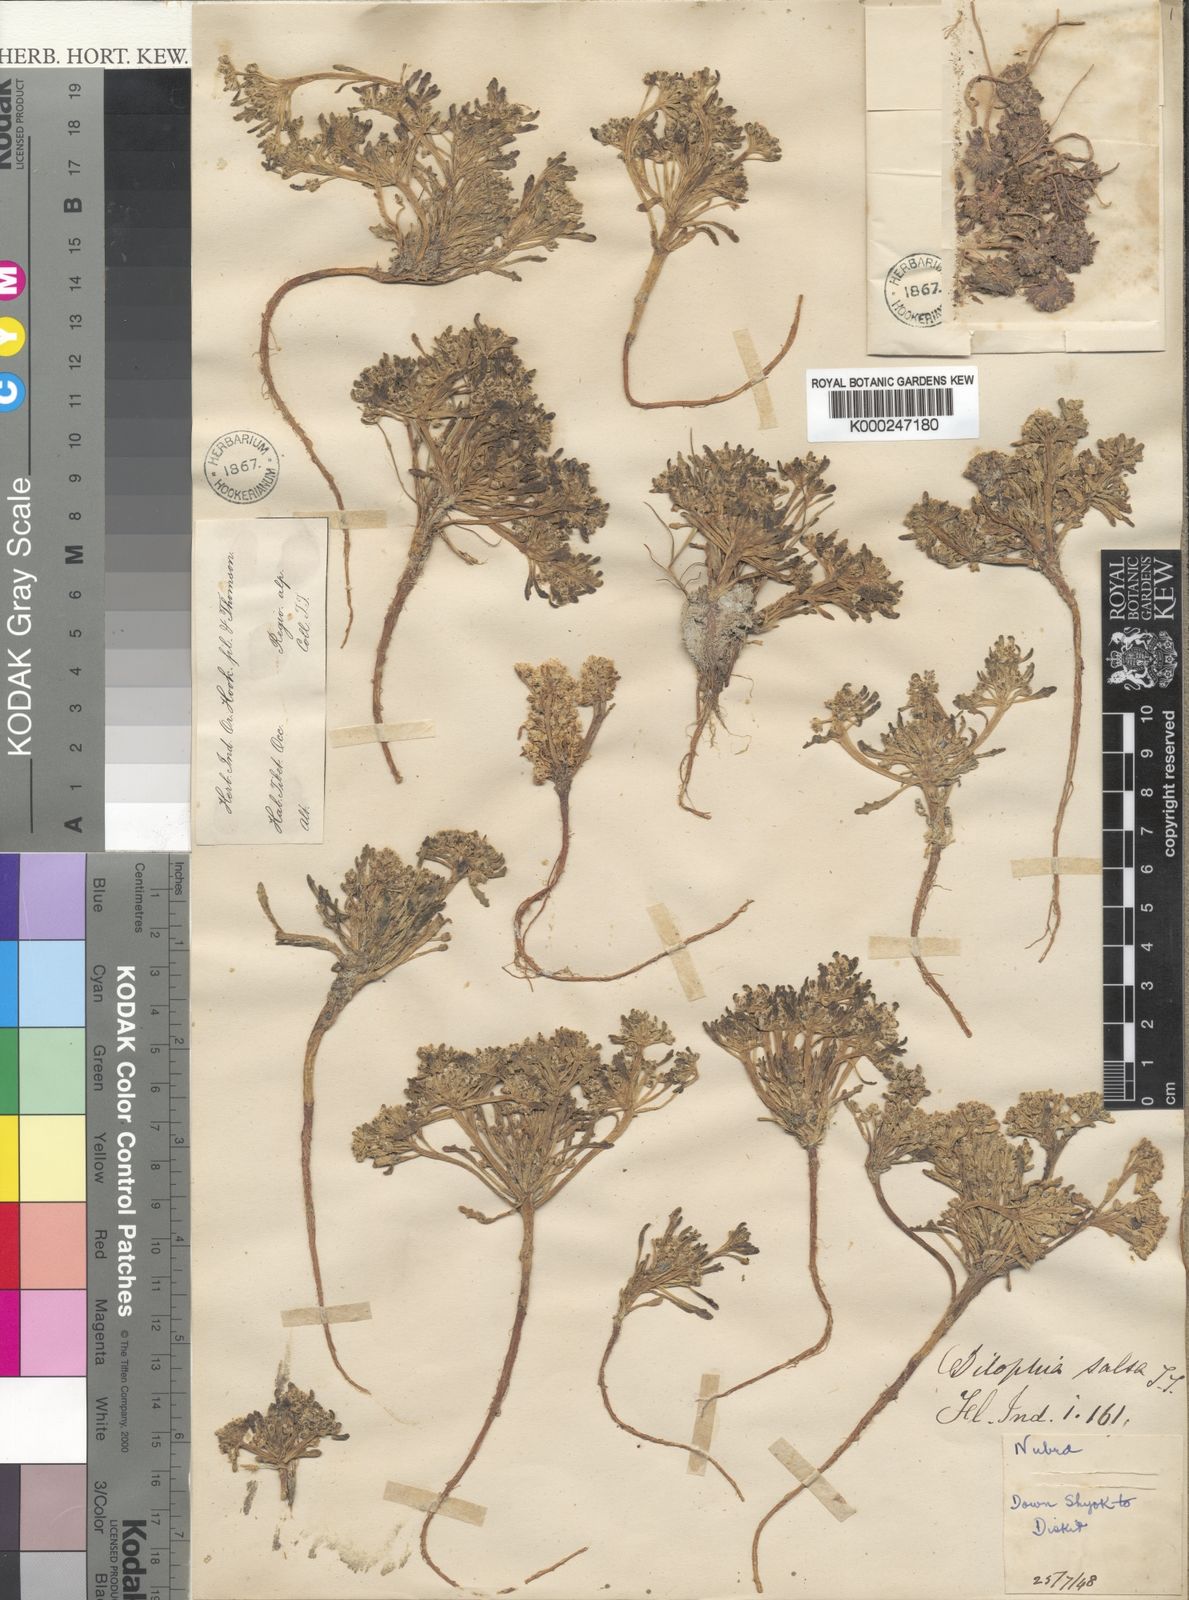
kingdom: Plantae
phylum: Tracheophyta
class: Magnoliopsida
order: Brassicales
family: Brassicaceae
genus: Dilophia
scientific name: Dilophia salsa
